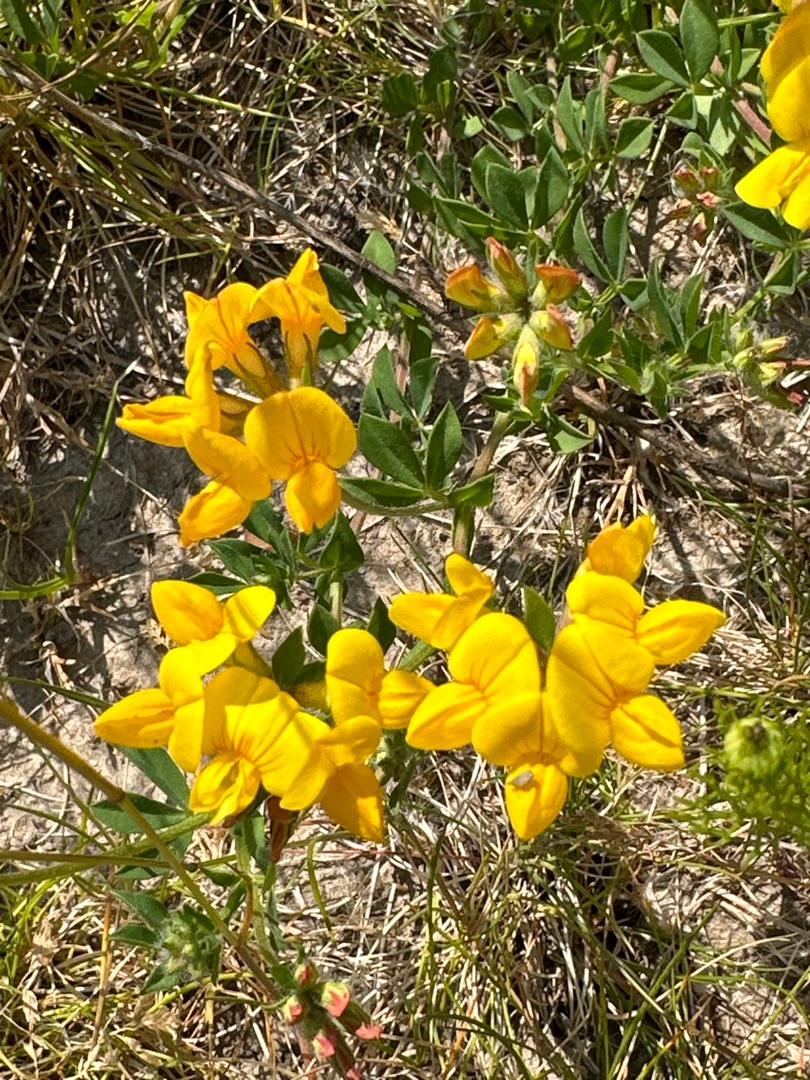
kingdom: Plantae
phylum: Tracheophyta
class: Magnoliopsida
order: Fabales
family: Fabaceae
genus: Lotus
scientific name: Lotus corniculatus
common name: Almindelig kællingetand
